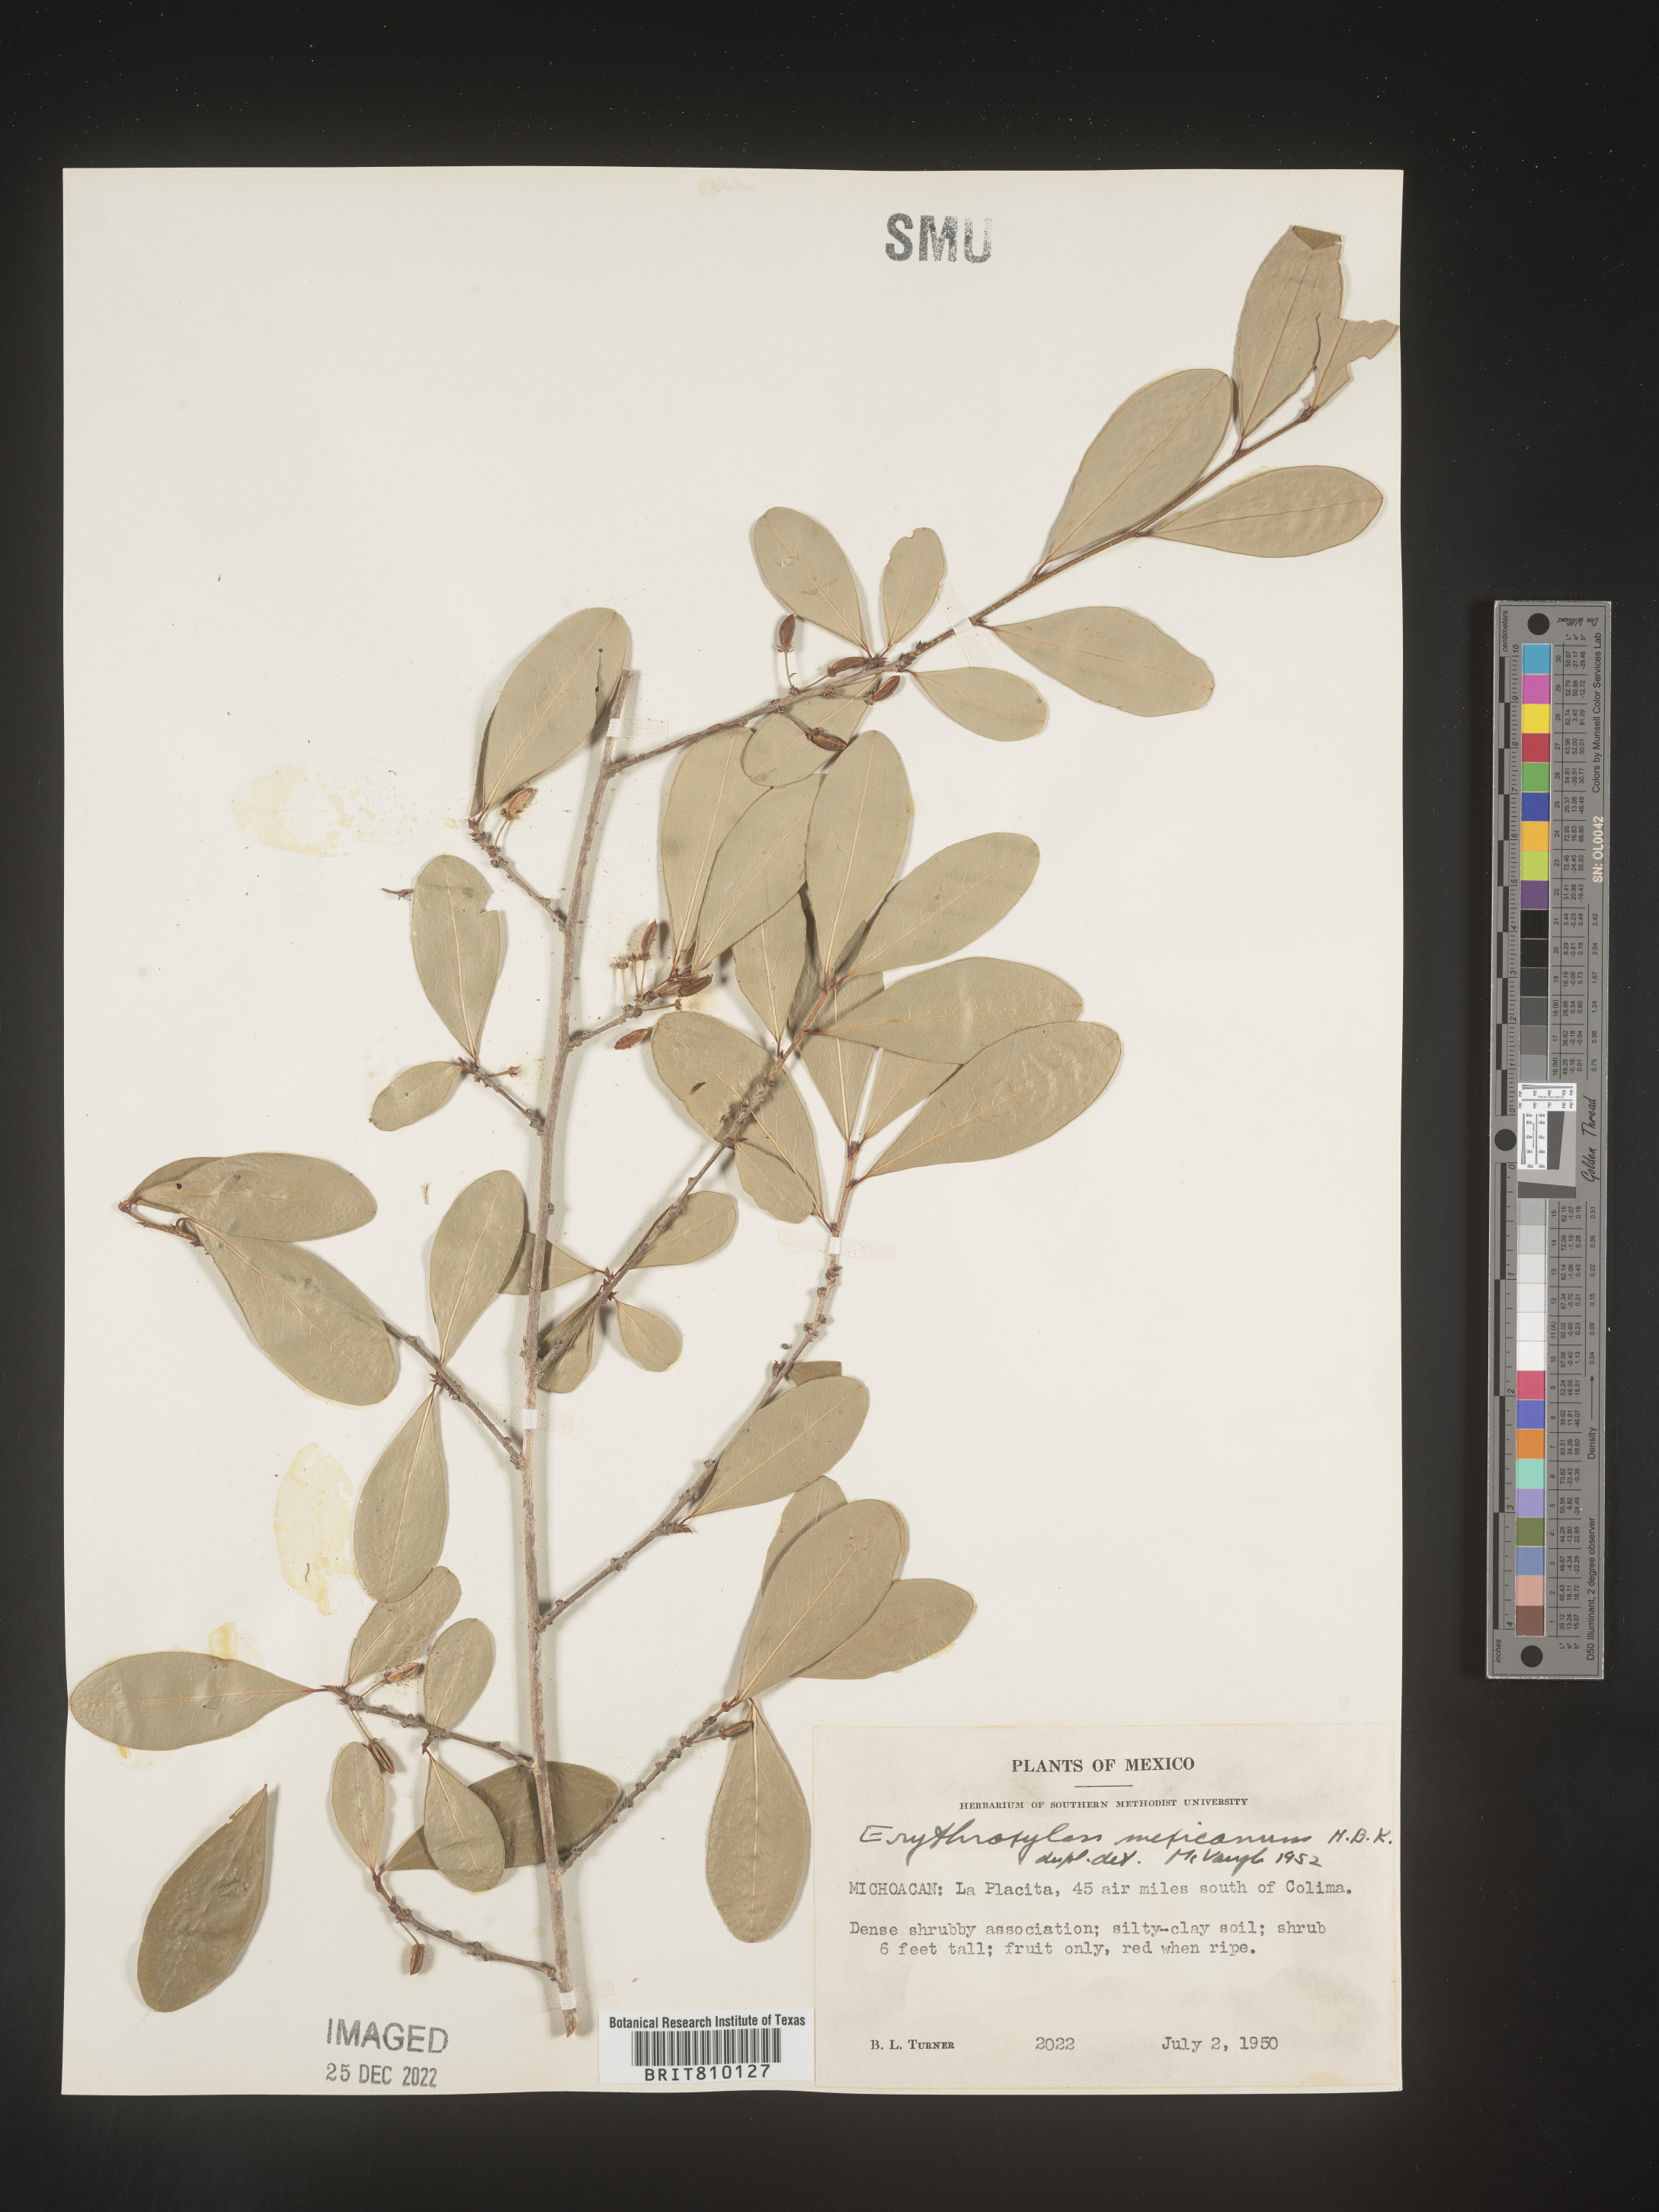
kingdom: Plantae
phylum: Tracheophyta
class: Magnoliopsida
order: Malpighiales
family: Erythroxylaceae
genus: Erythroxylum
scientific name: Erythroxylum
